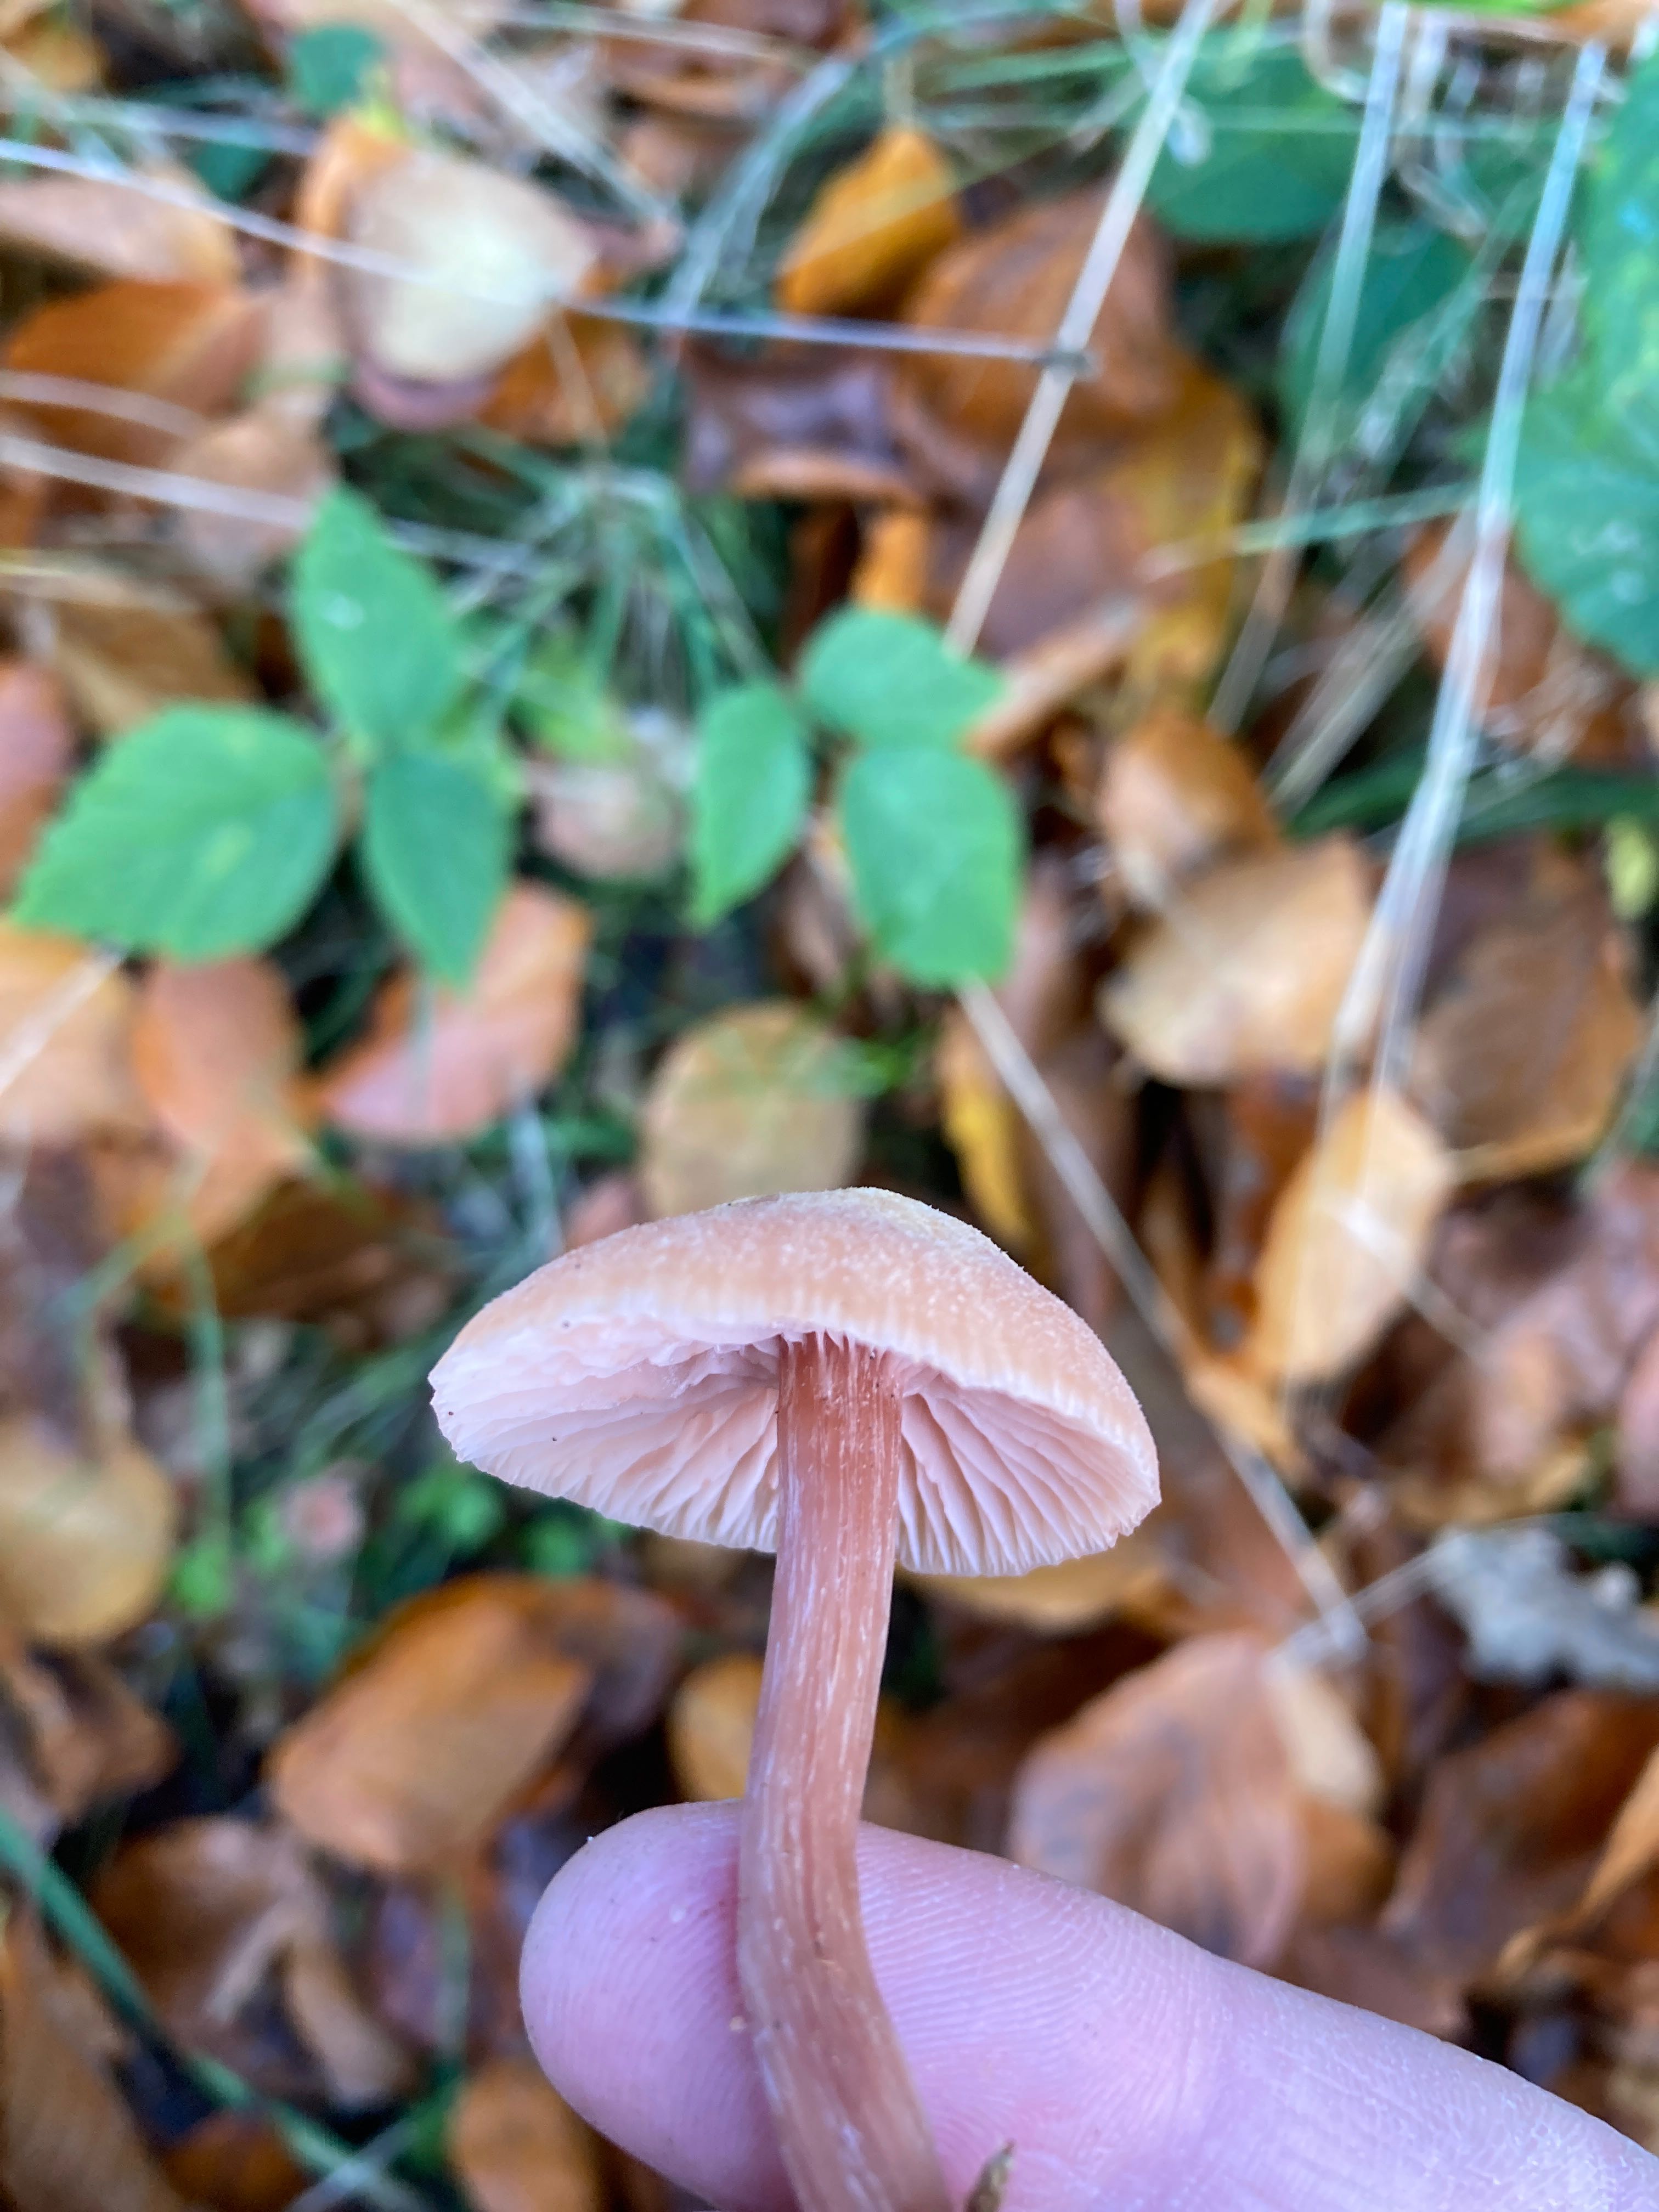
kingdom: Fungi
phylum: Basidiomycota
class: Agaricomycetes
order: Agaricales
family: Hydnangiaceae
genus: Laccaria
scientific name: Laccaria
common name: ametysthat
